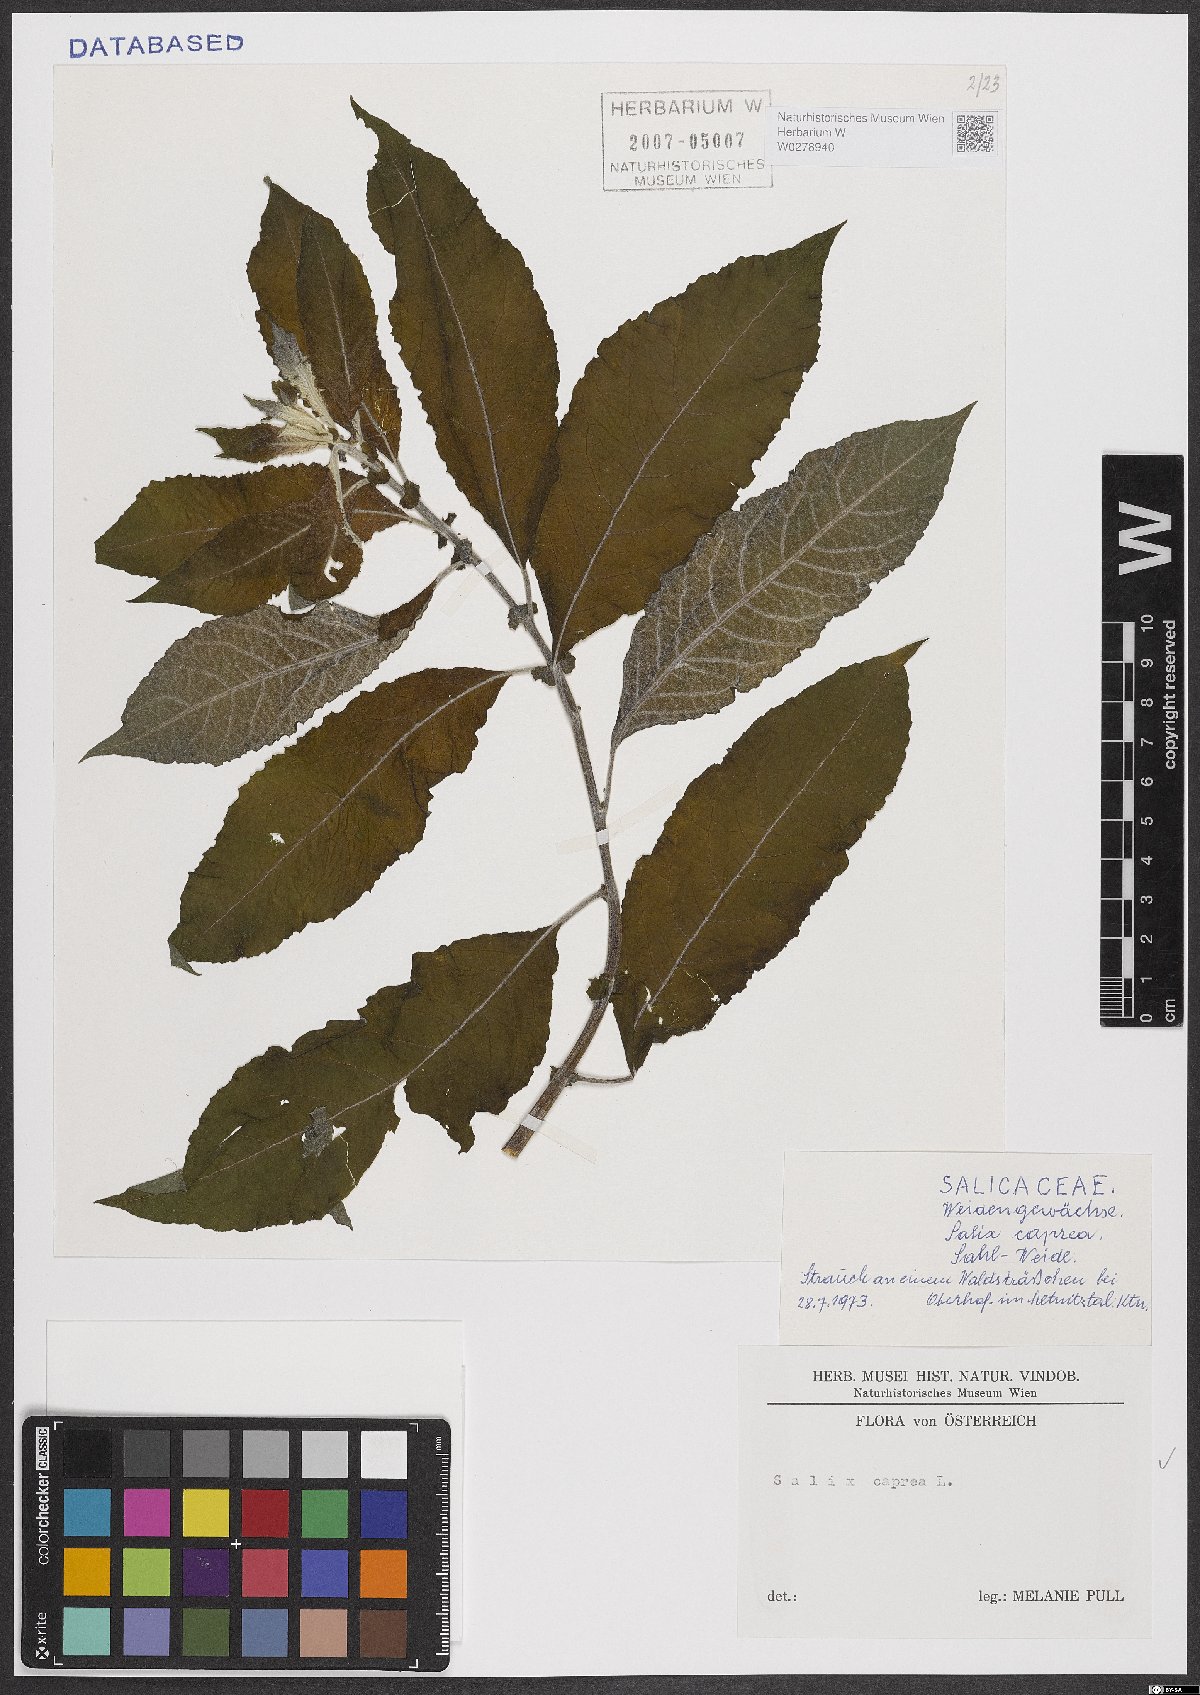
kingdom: Plantae
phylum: Tracheophyta
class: Magnoliopsida
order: Malpighiales
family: Salicaceae
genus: Salix
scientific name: Salix caprea
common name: Goat willow
